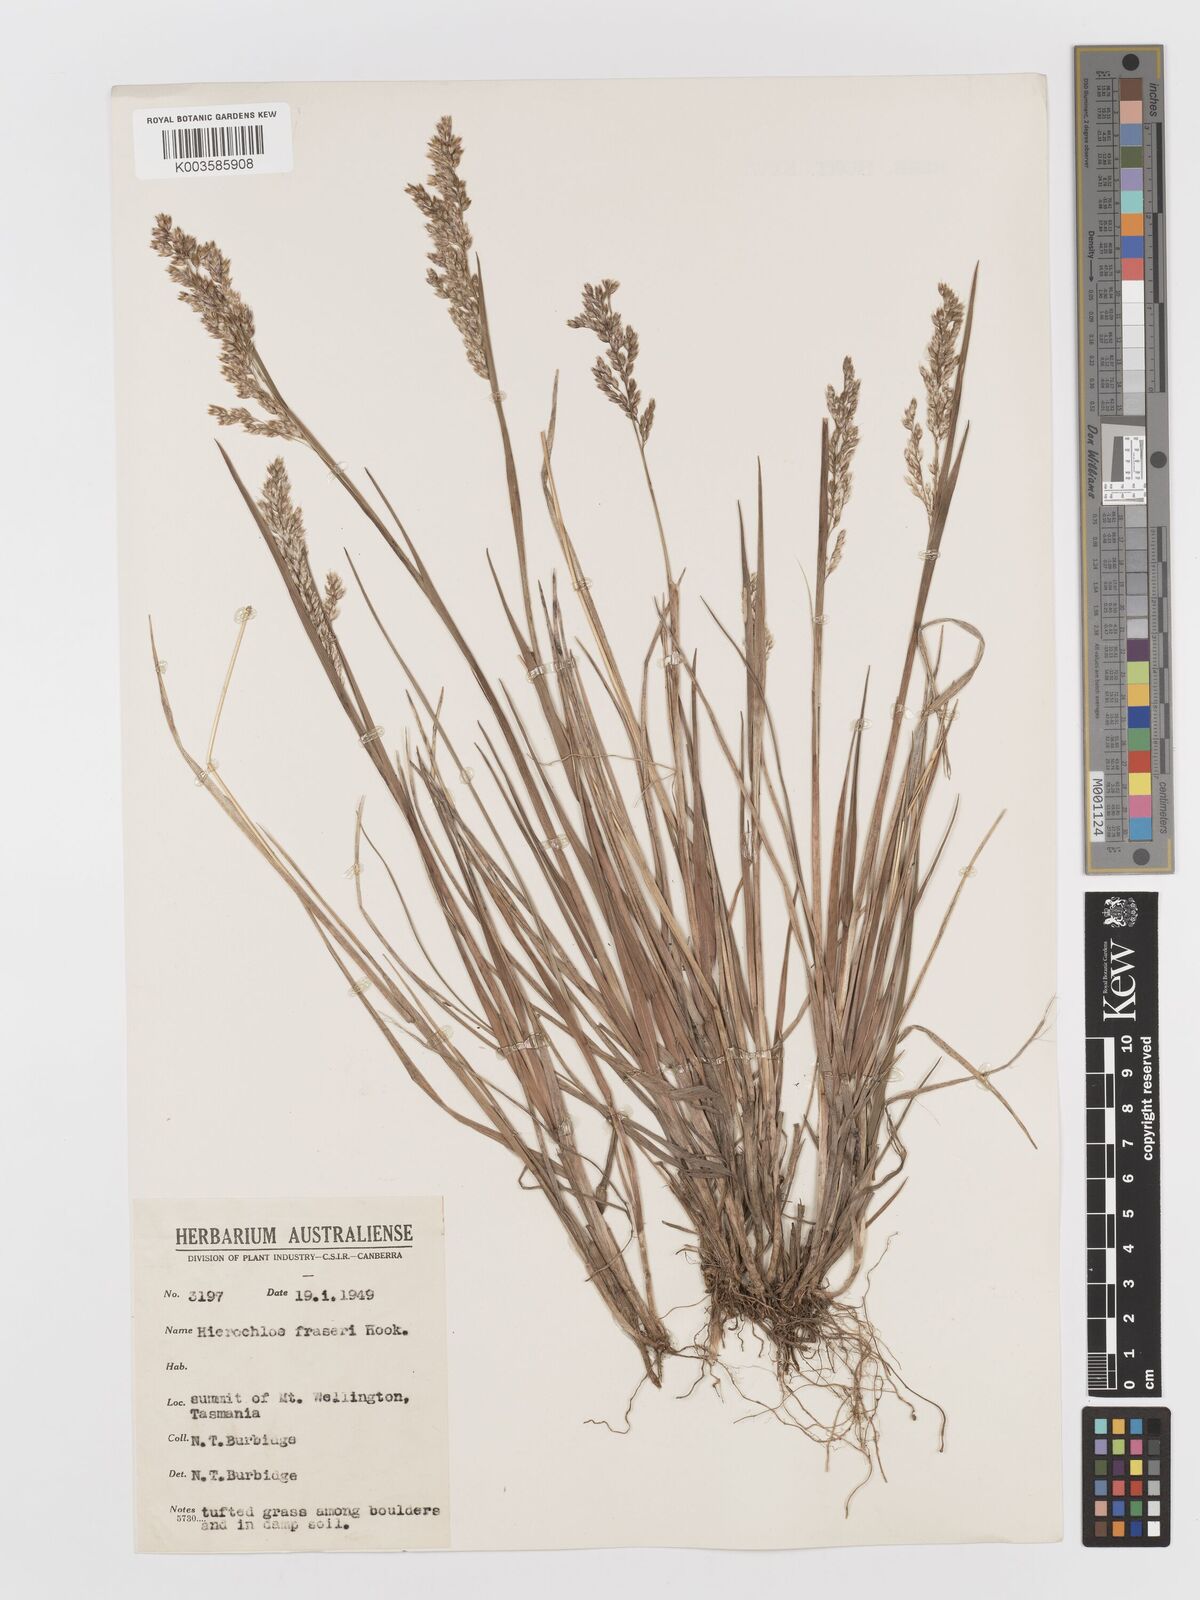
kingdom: Plantae
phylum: Tracheophyta
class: Liliopsida
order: Poales
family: Poaceae
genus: Anthoxanthum
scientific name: Anthoxanthum redolens
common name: Sweet holy grass
